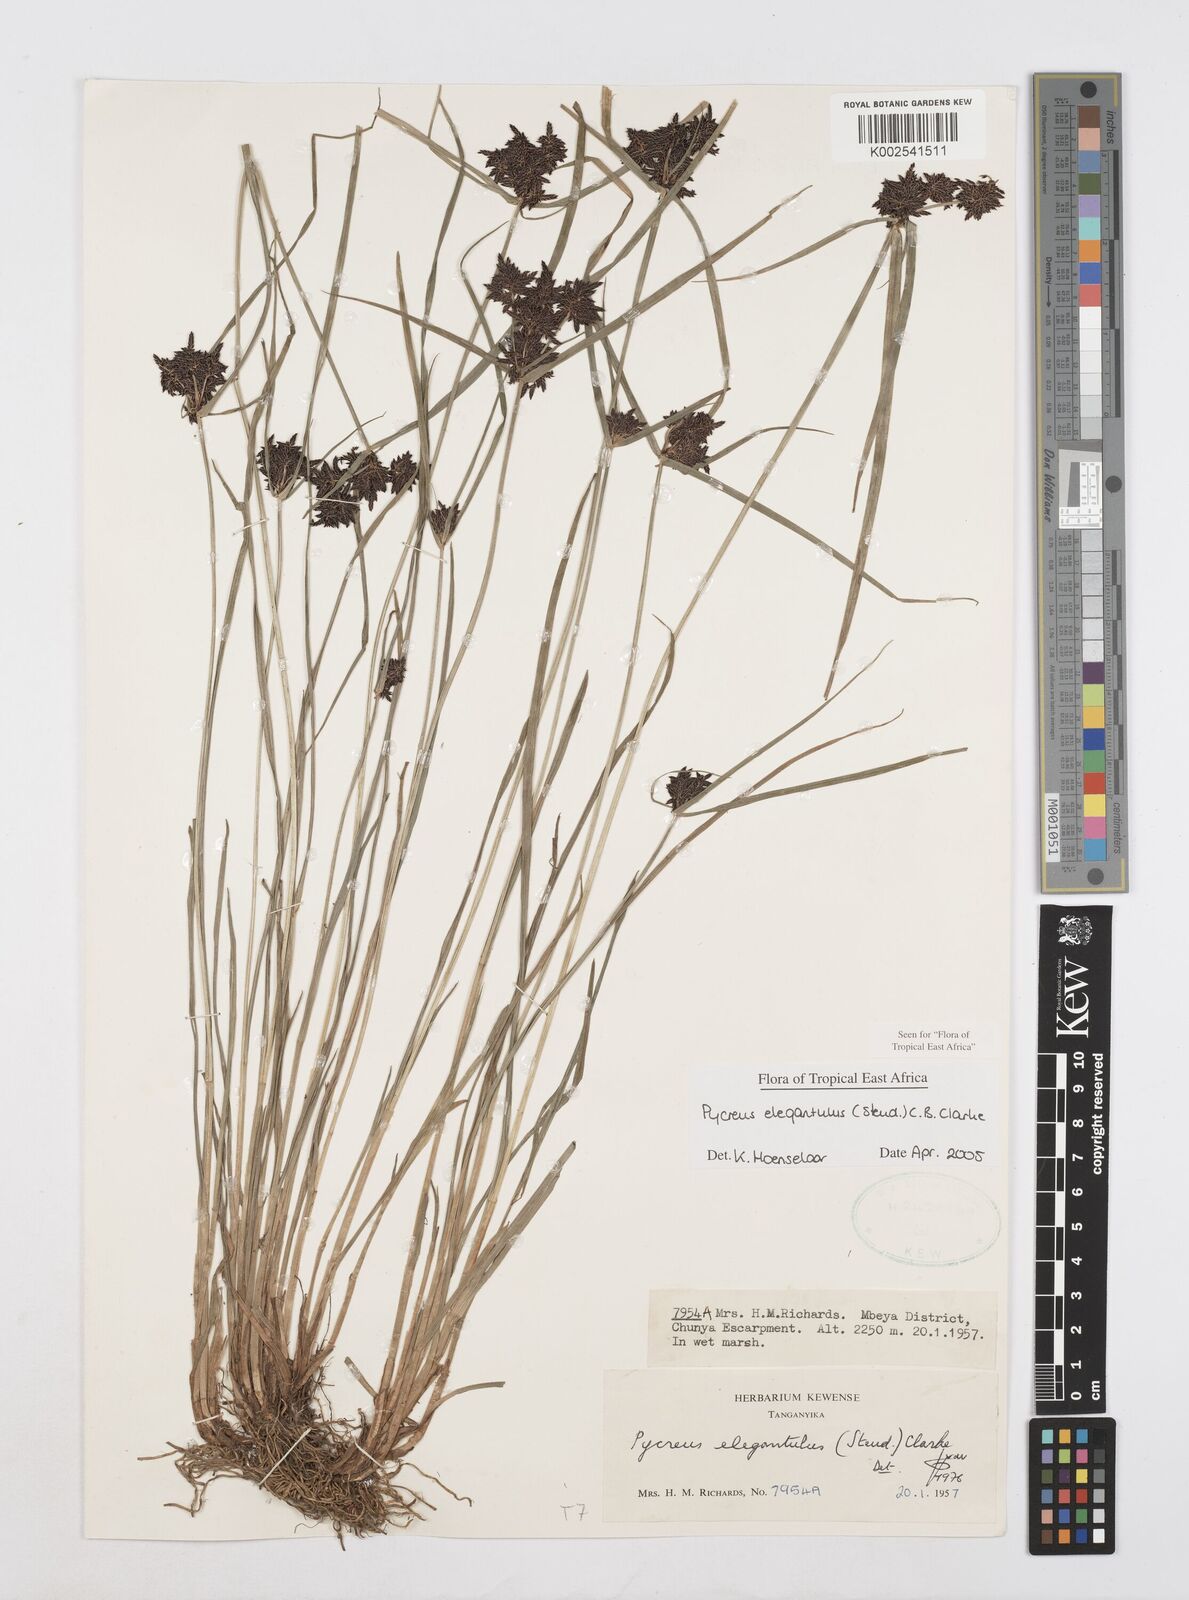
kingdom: Plantae
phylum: Tracheophyta
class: Liliopsida
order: Poales
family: Cyperaceae
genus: Cyperus
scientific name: Cyperus elegantulus
